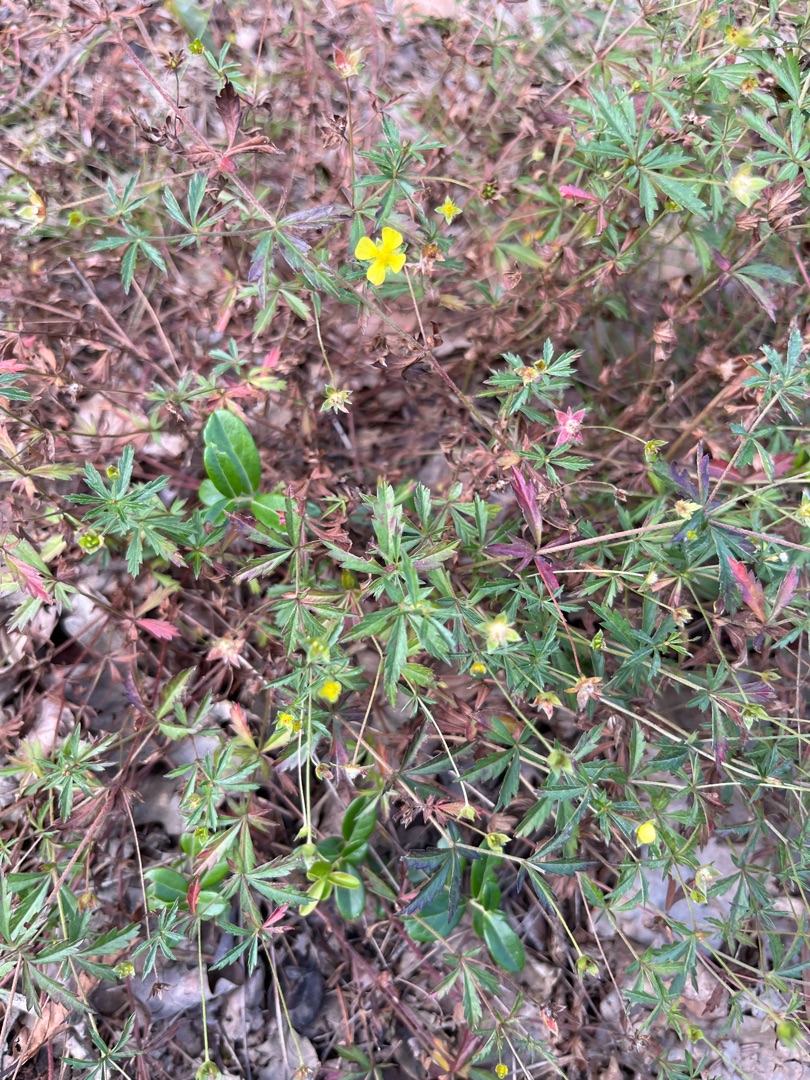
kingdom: Plantae
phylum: Tracheophyta
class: Magnoliopsida
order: Rosales
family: Rosaceae
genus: Potentilla
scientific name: Potentilla erecta
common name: Tormentil
